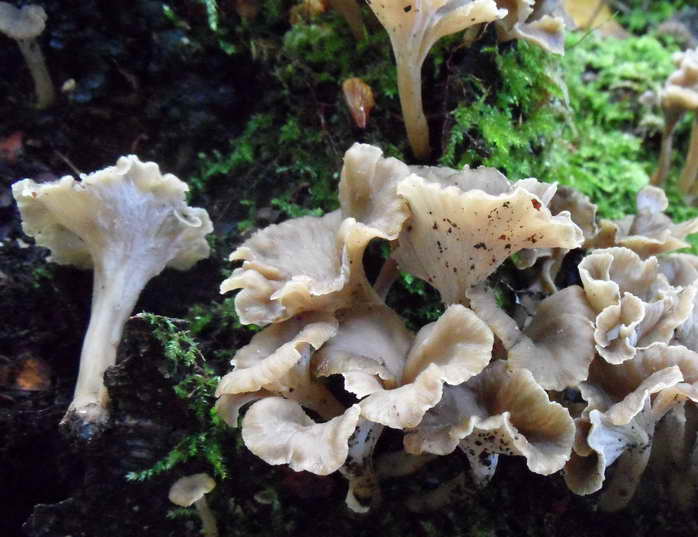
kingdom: Fungi
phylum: Basidiomycota
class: Agaricomycetes
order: Cantharellales
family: Hydnaceae
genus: Craterellus
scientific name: Craterellus undulatus
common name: liden kantarel
